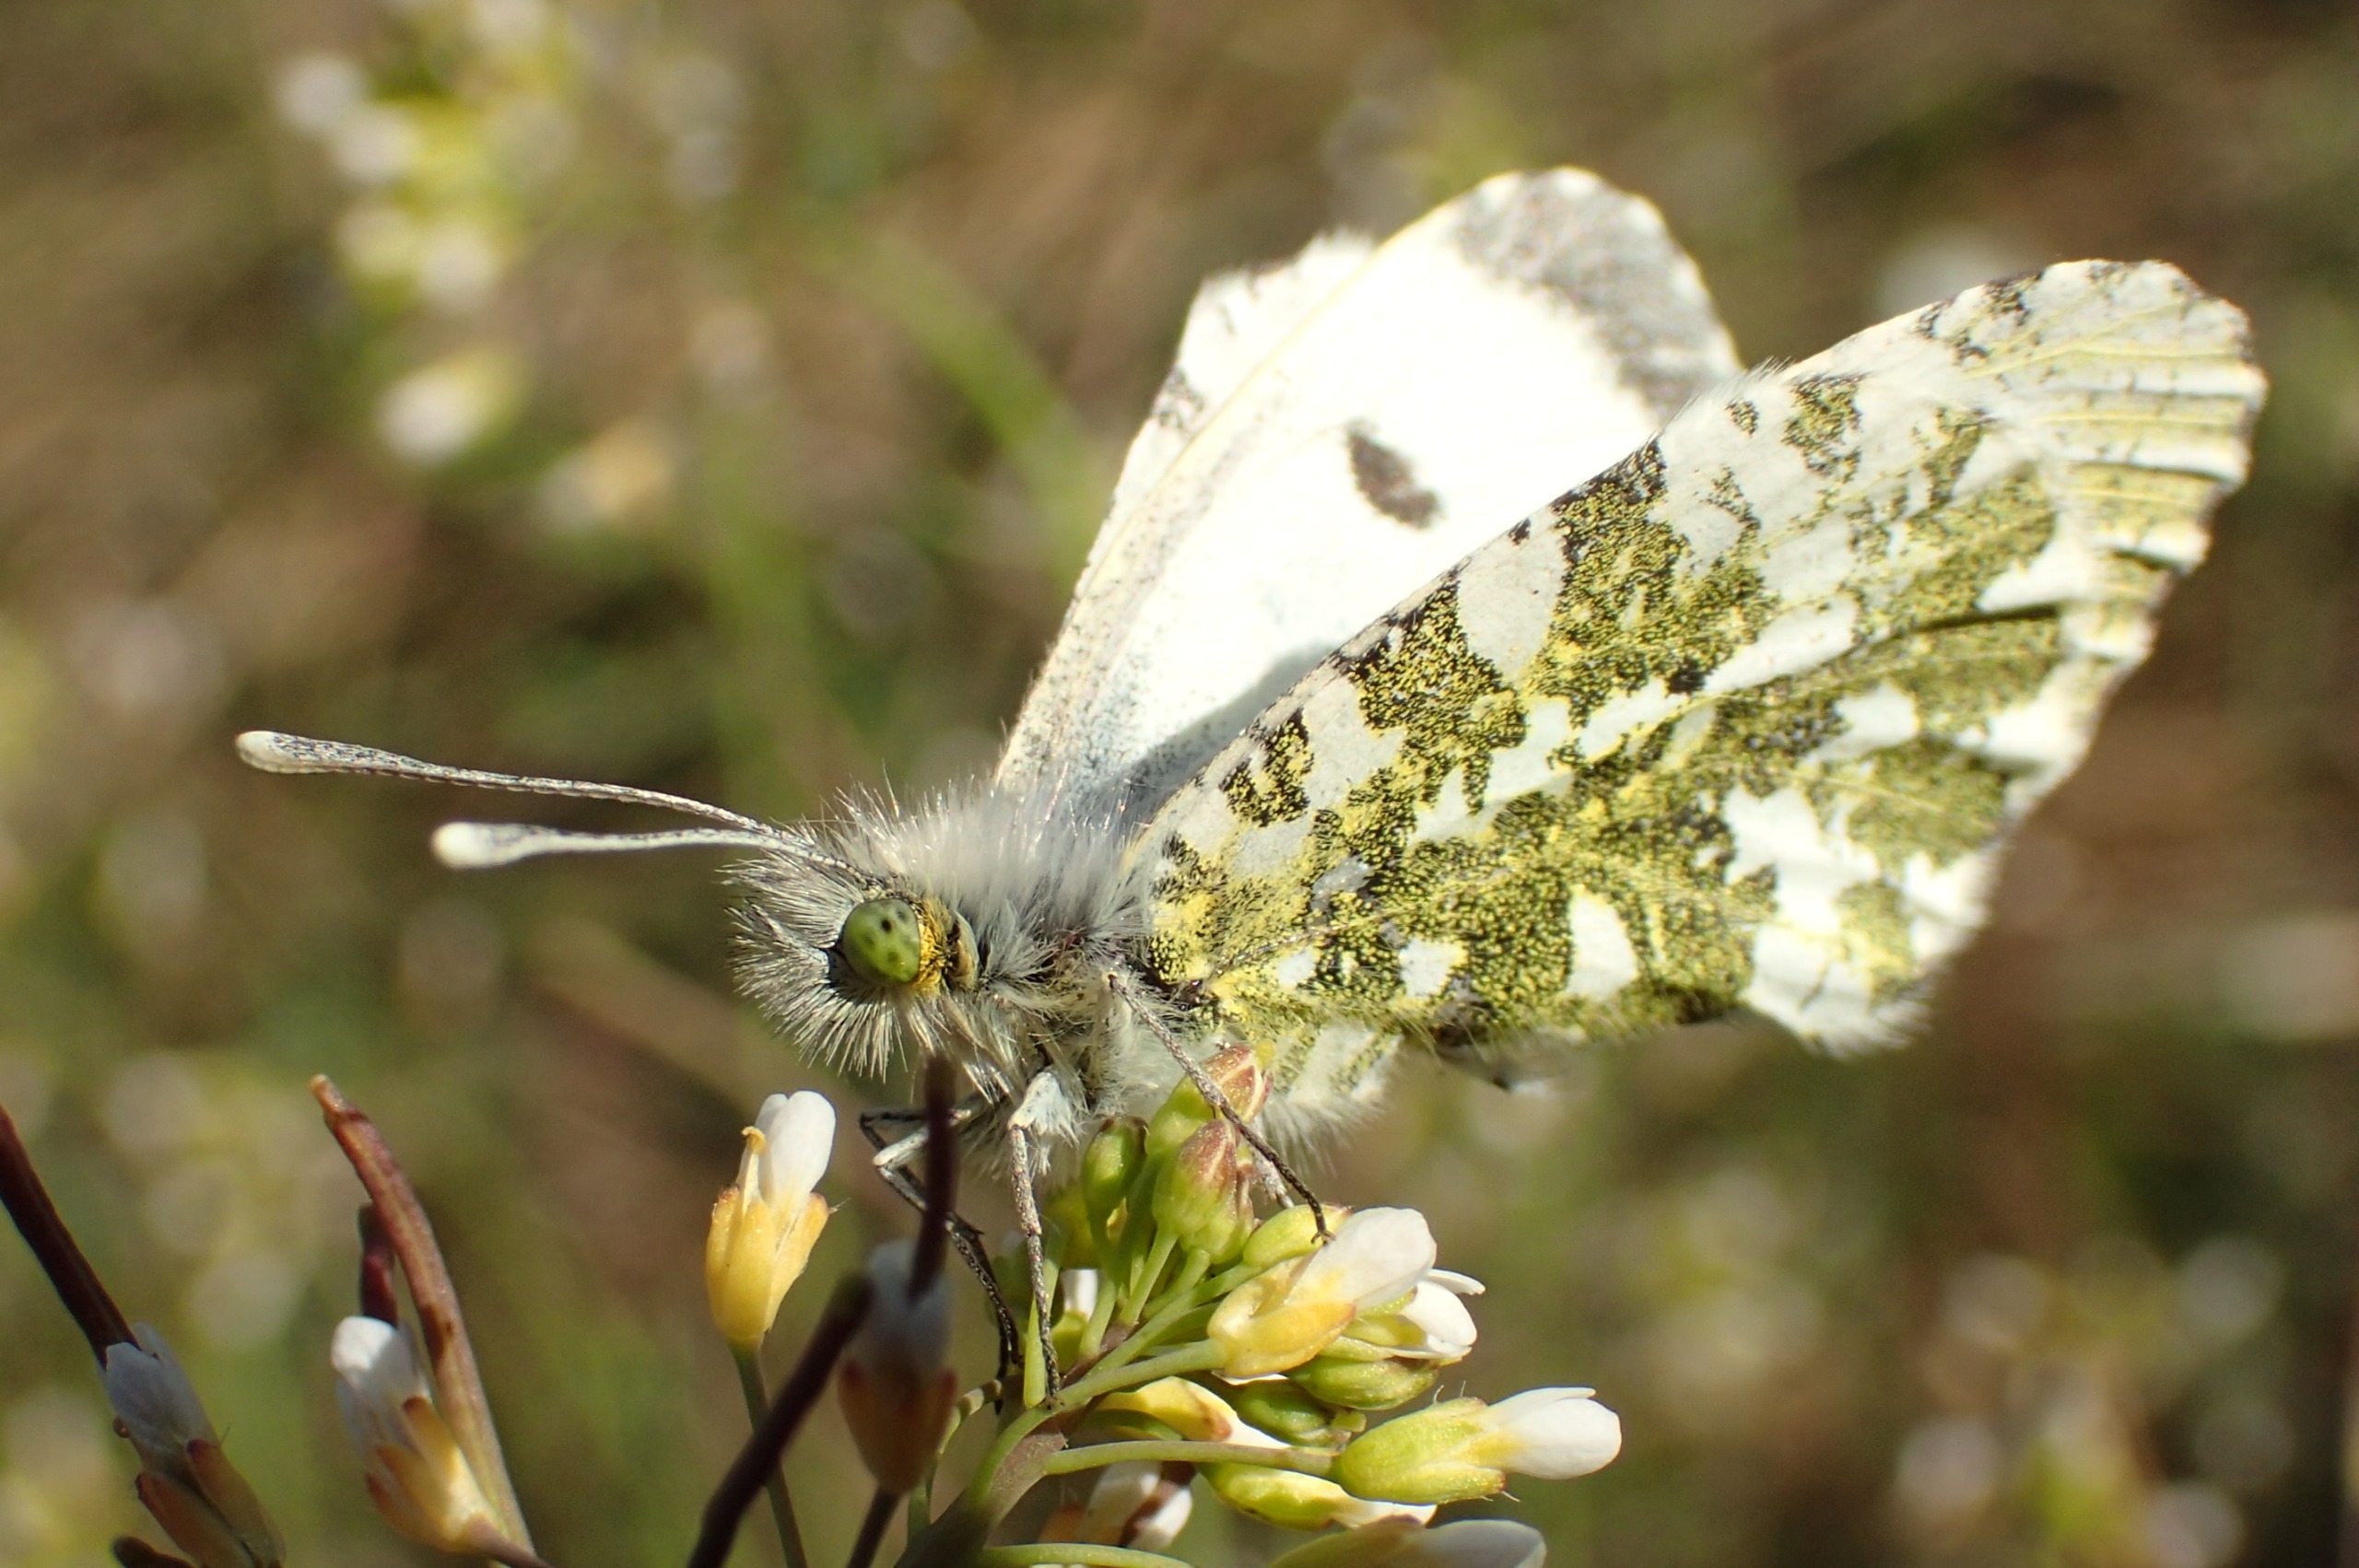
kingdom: Animalia
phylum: Arthropoda
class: Insecta
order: Lepidoptera
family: Pieridae
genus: Anthocharis
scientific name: Anthocharis cardamines
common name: Aurora
